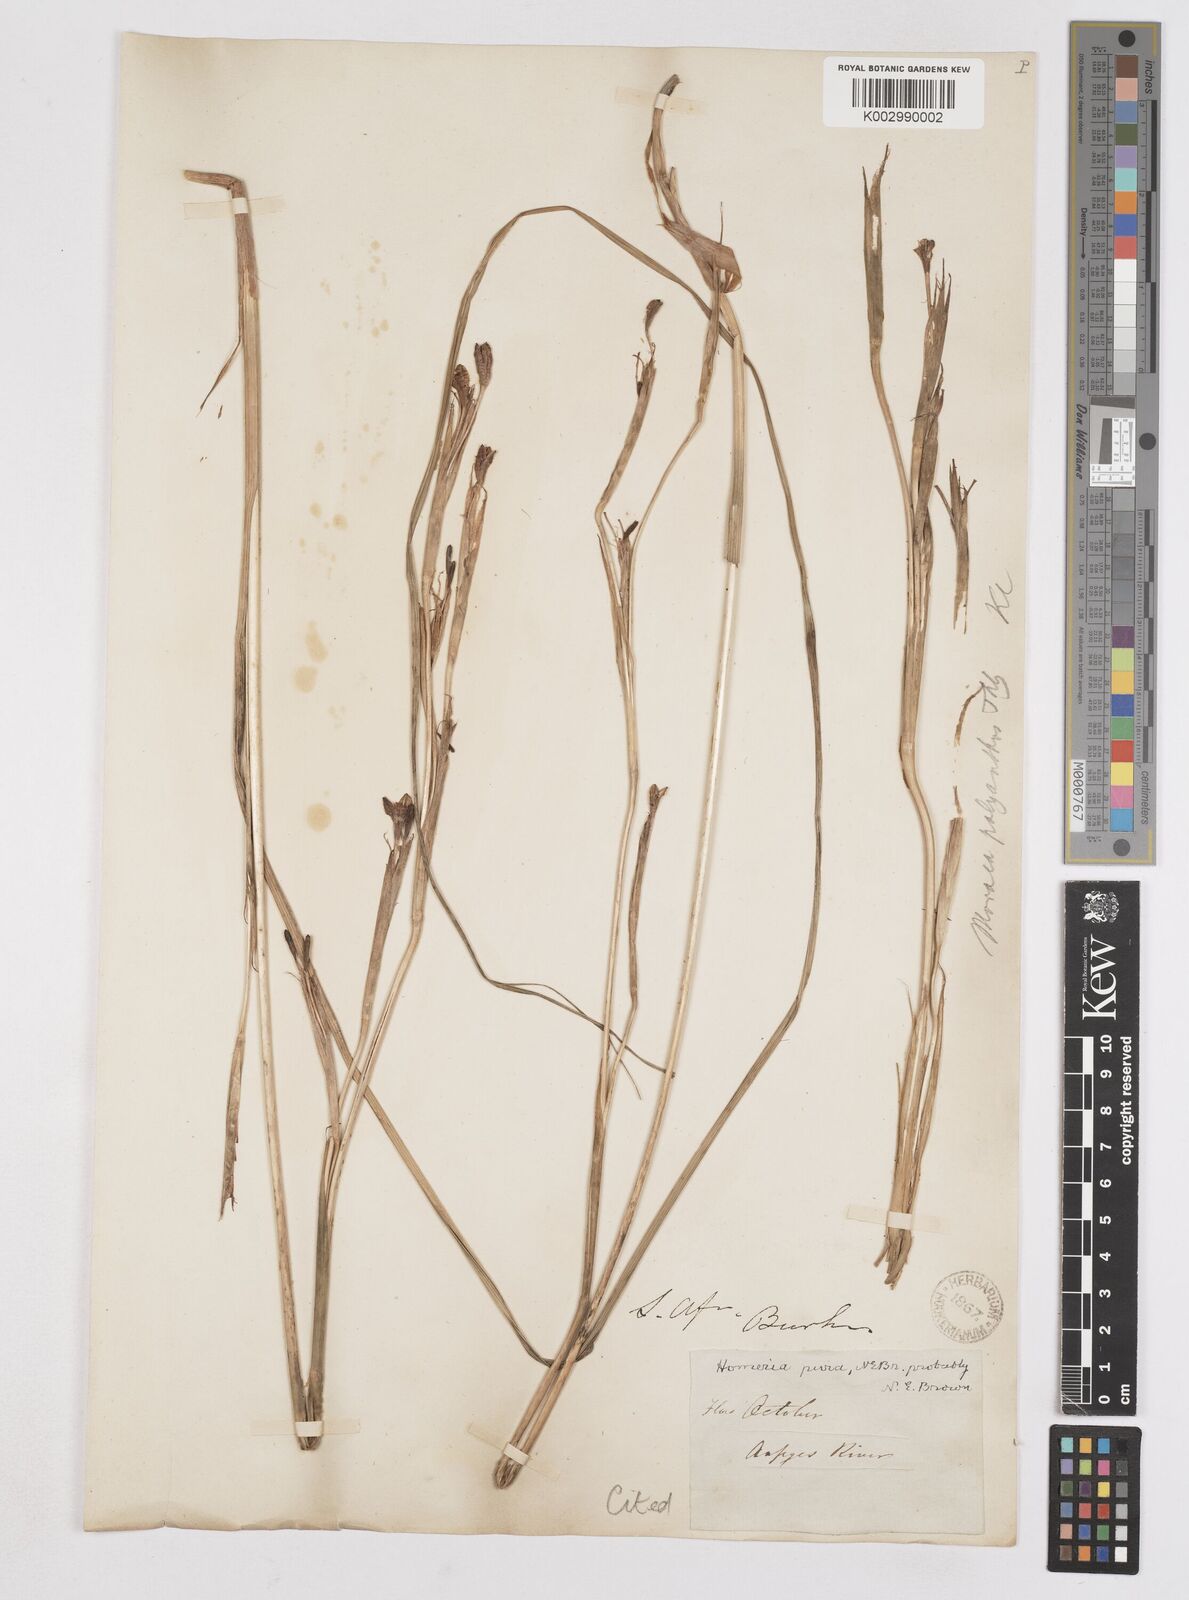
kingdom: Plantae
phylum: Tracheophyta
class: Liliopsida
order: Asparagales
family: Iridaceae
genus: Moraea
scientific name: Moraea pallida
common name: Yellow tulp
